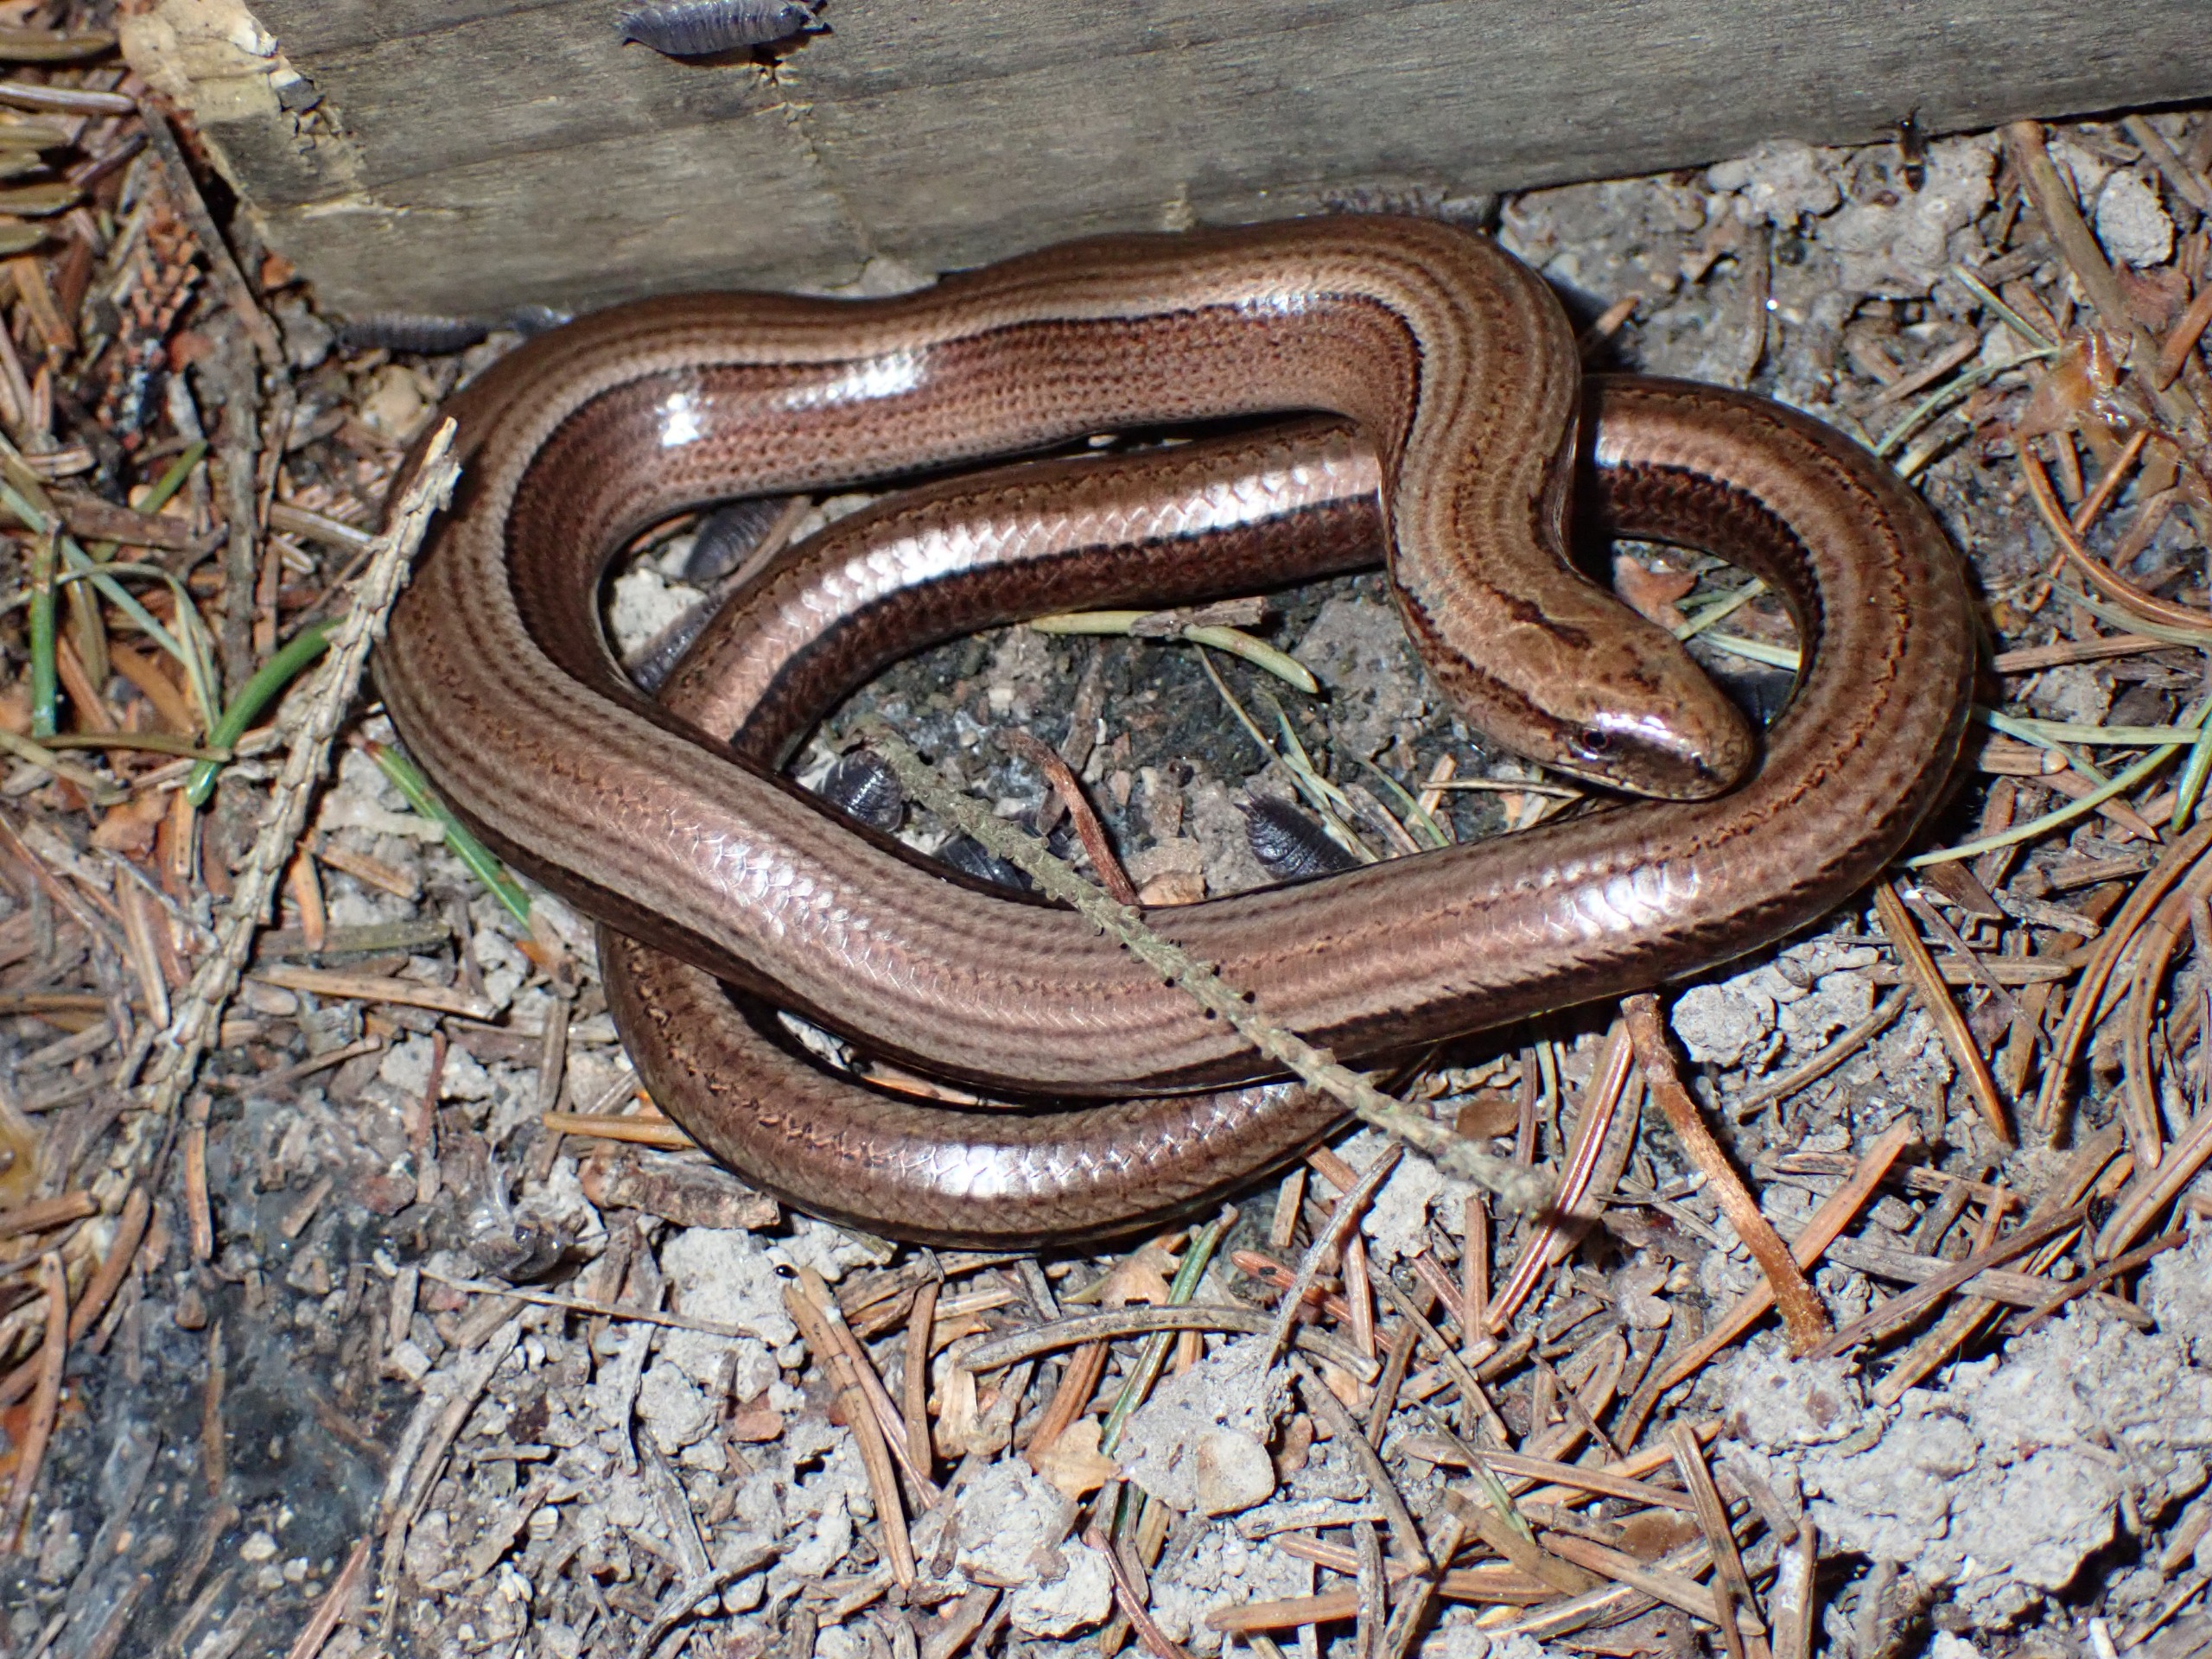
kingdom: Animalia
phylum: Chordata
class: Squamata
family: Anguidae
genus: Anguis
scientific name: Anguis fragilis
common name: Stålorm
